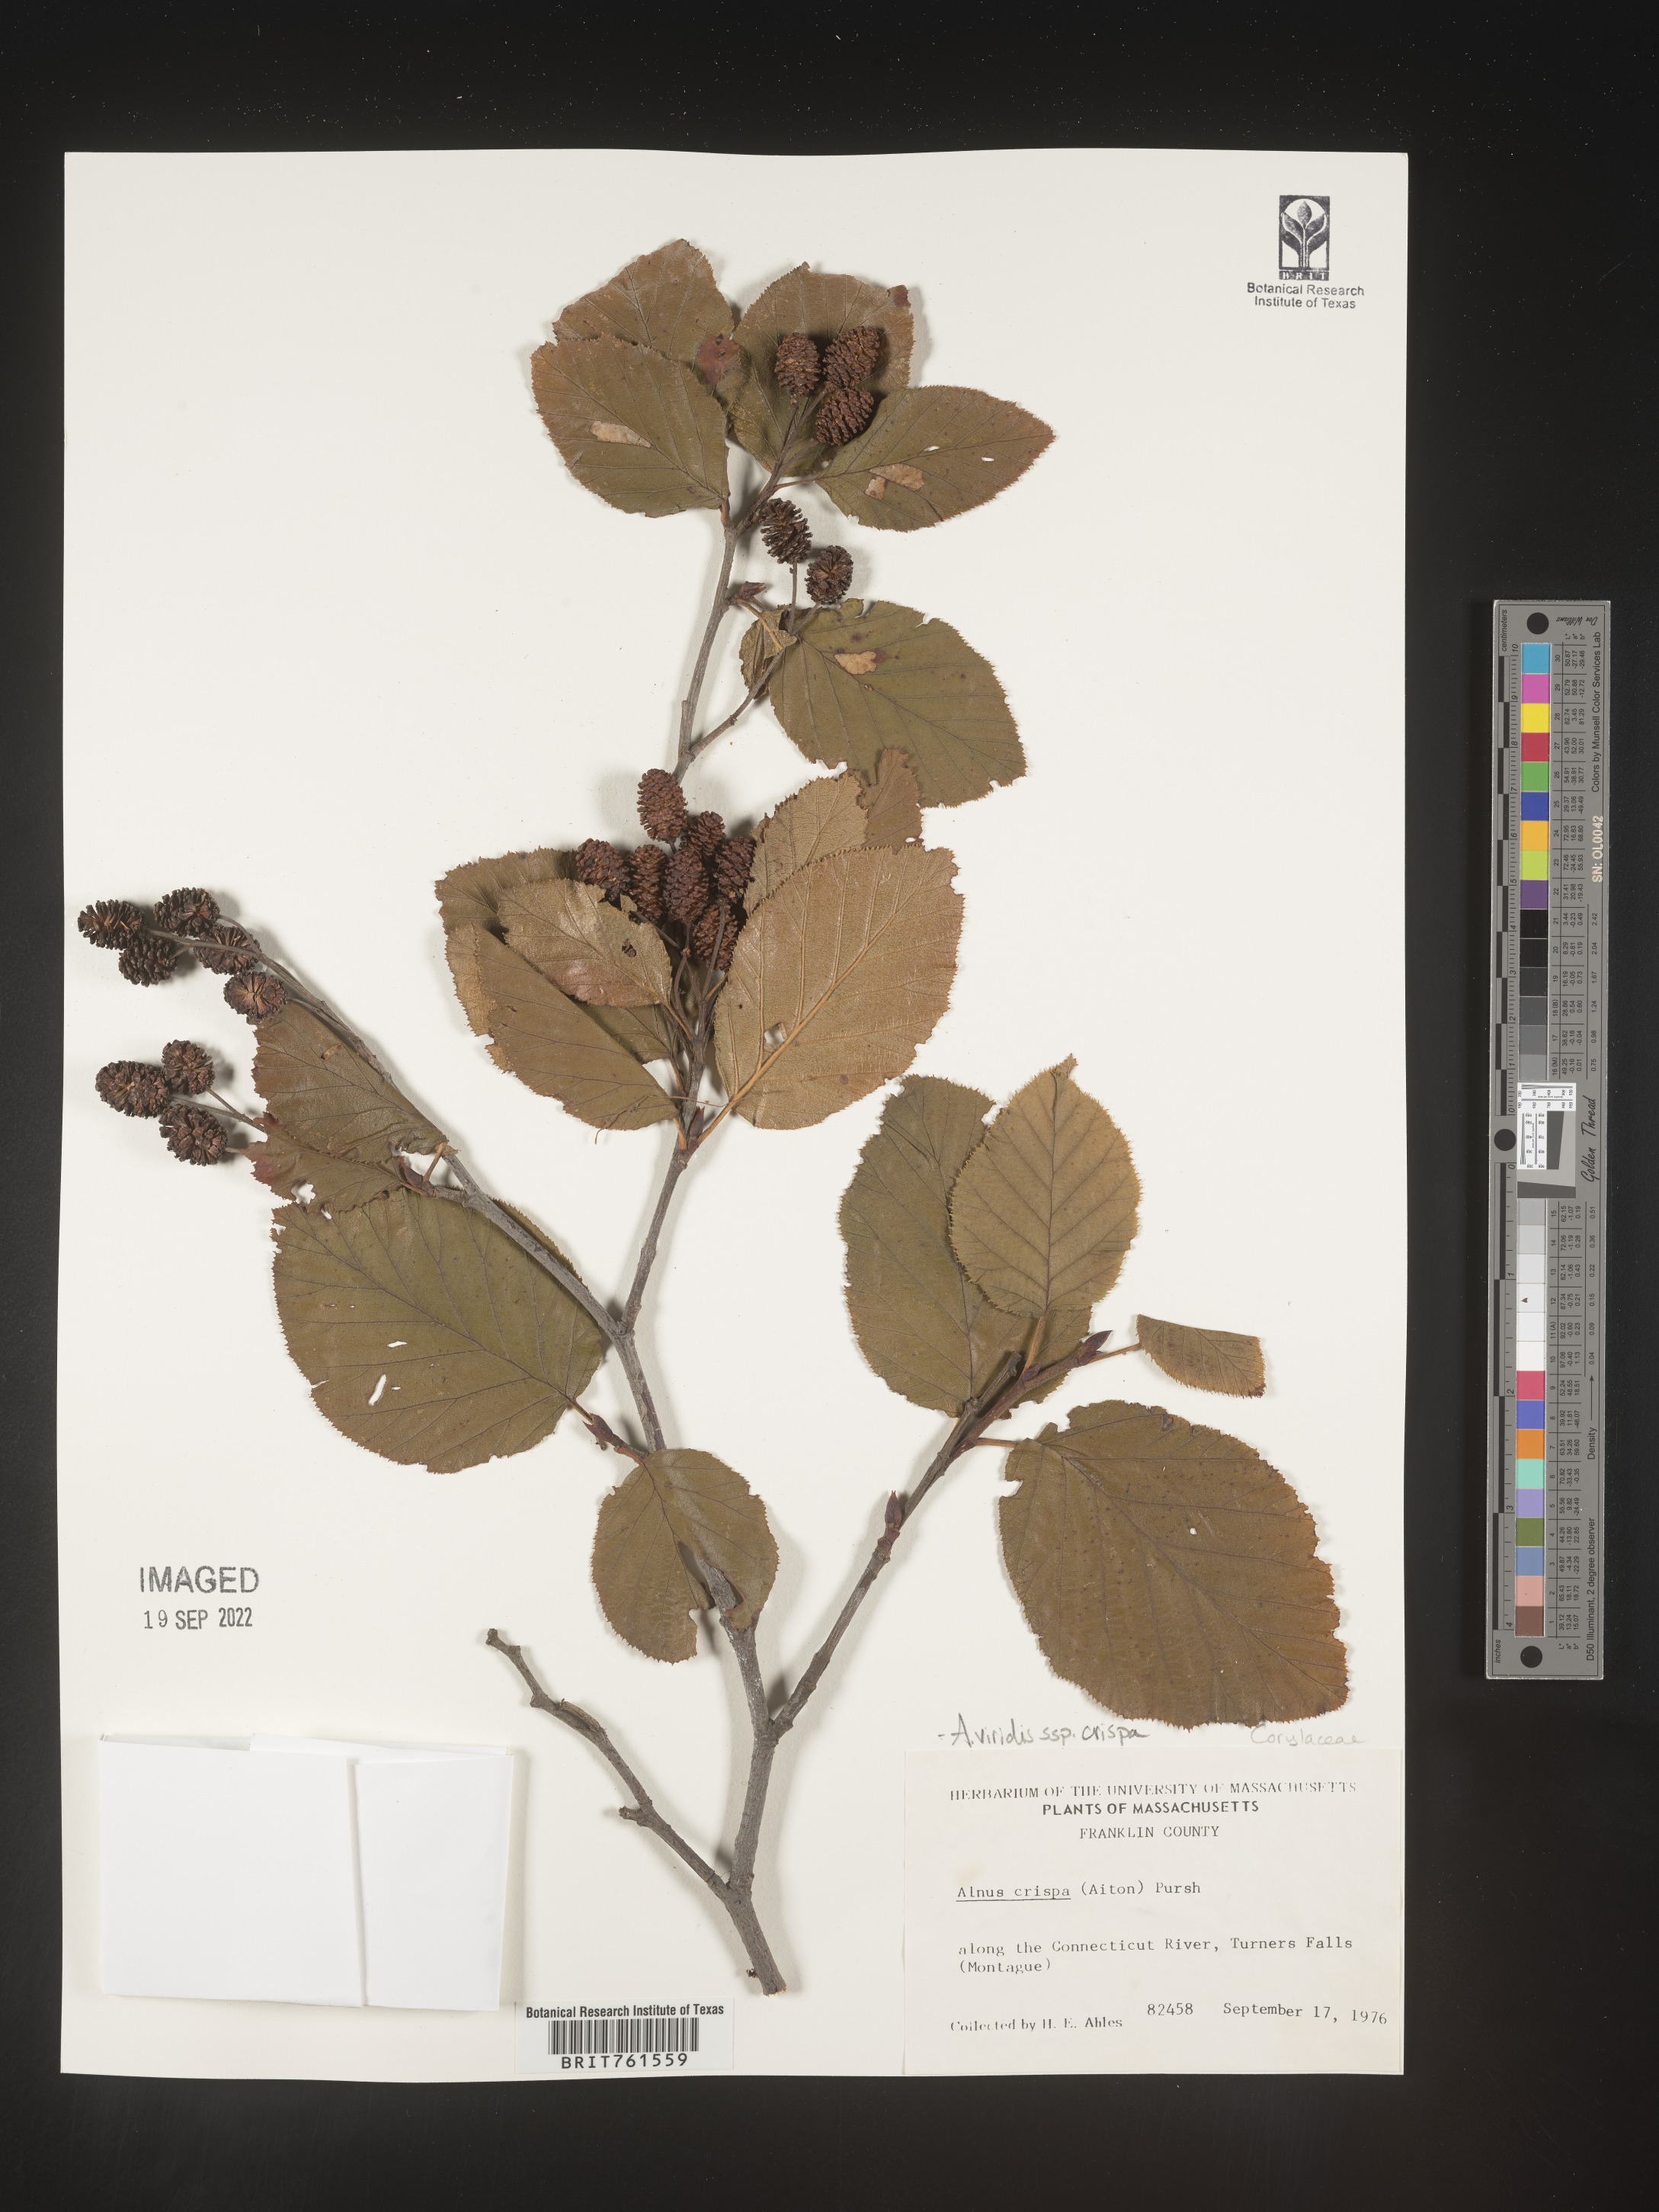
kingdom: Plantae
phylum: Tracheophyta
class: Magnoliopsida
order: Fagales
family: Betulaceae
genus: Alnus
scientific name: Alnus alnobetula
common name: Green alder
